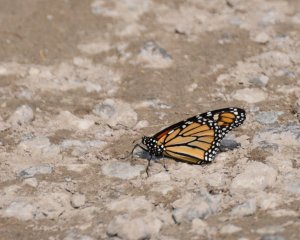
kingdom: Animalia
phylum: Arthropoda
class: Insecta
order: Lepidoptera
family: Nymphalidae
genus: Danaus
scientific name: Danaus plexippus
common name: Monarch
